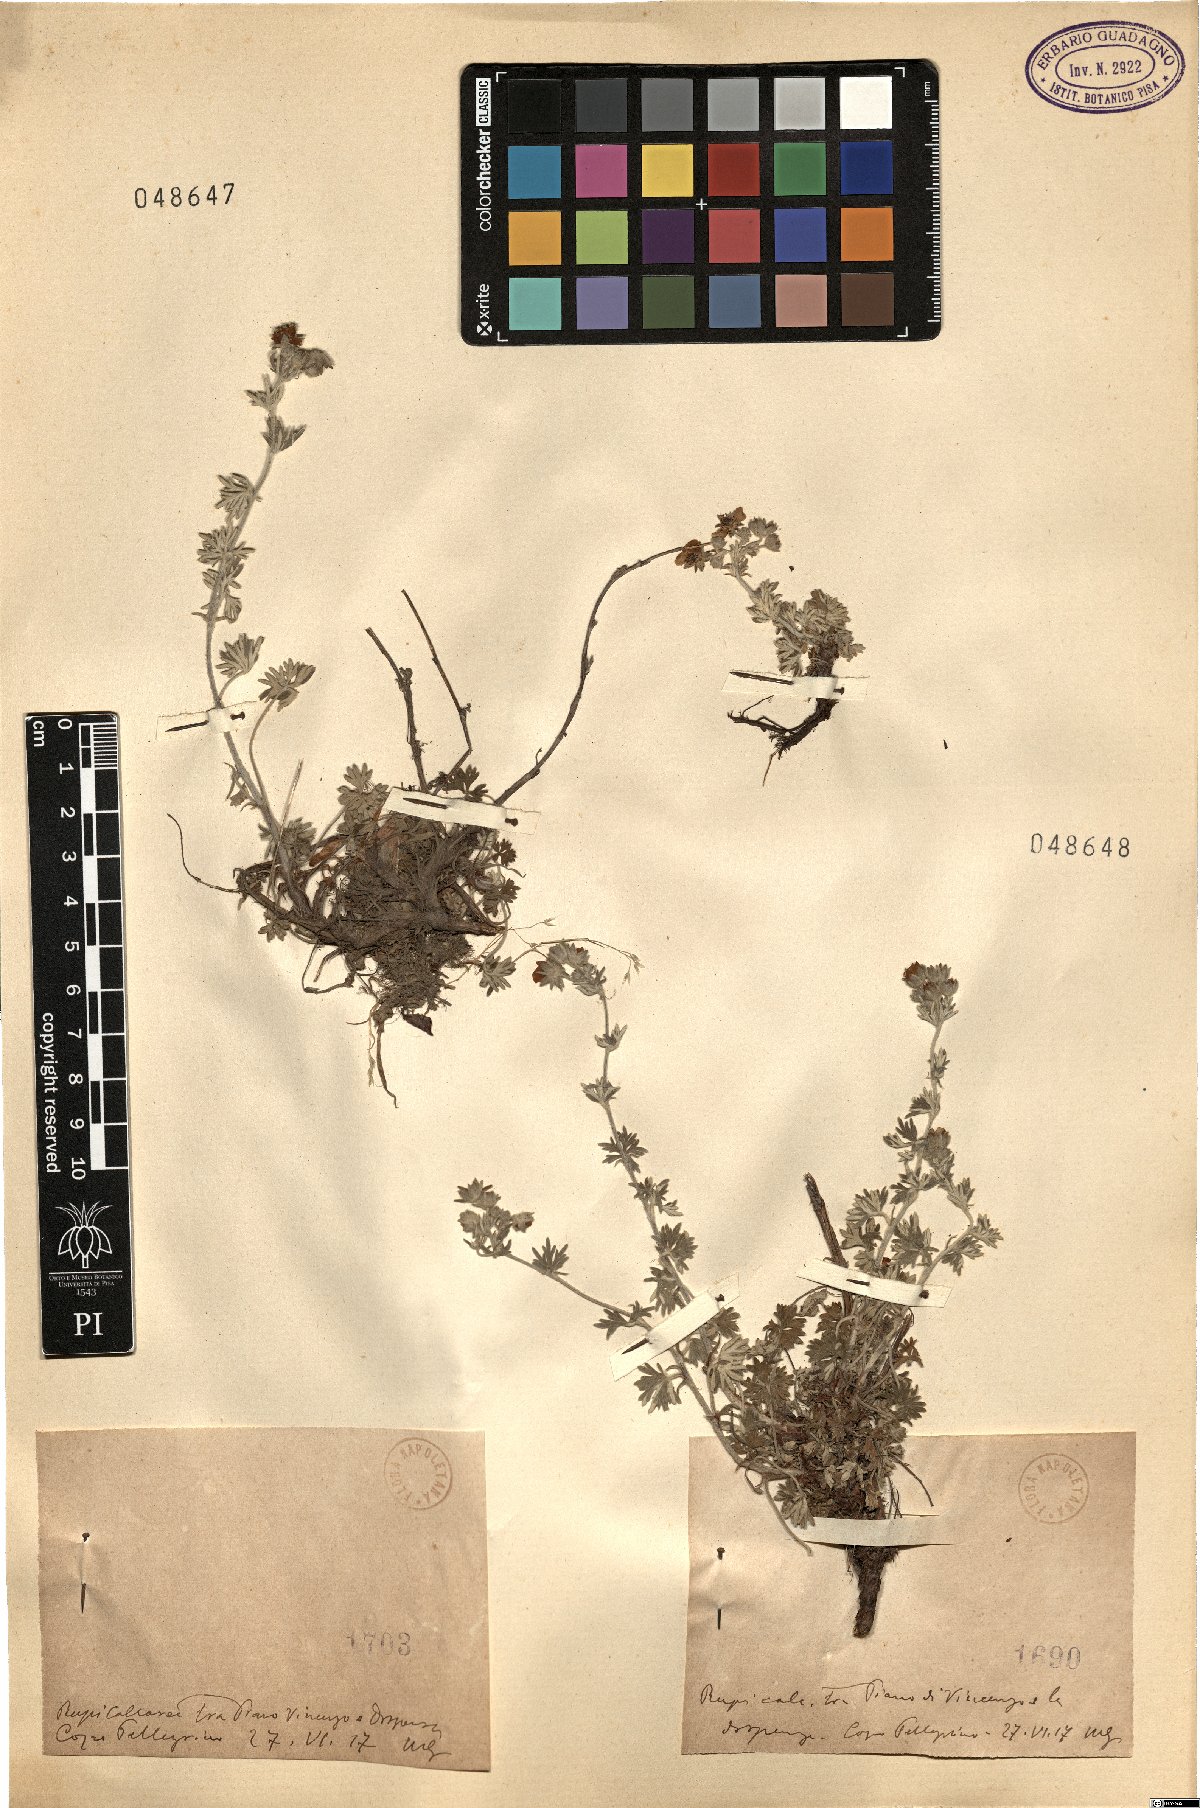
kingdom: Plantae
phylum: Tracheophyta
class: Magnoliopsida
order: Rosales
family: Rosaceae
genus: Potentilla
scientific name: Potentilla
